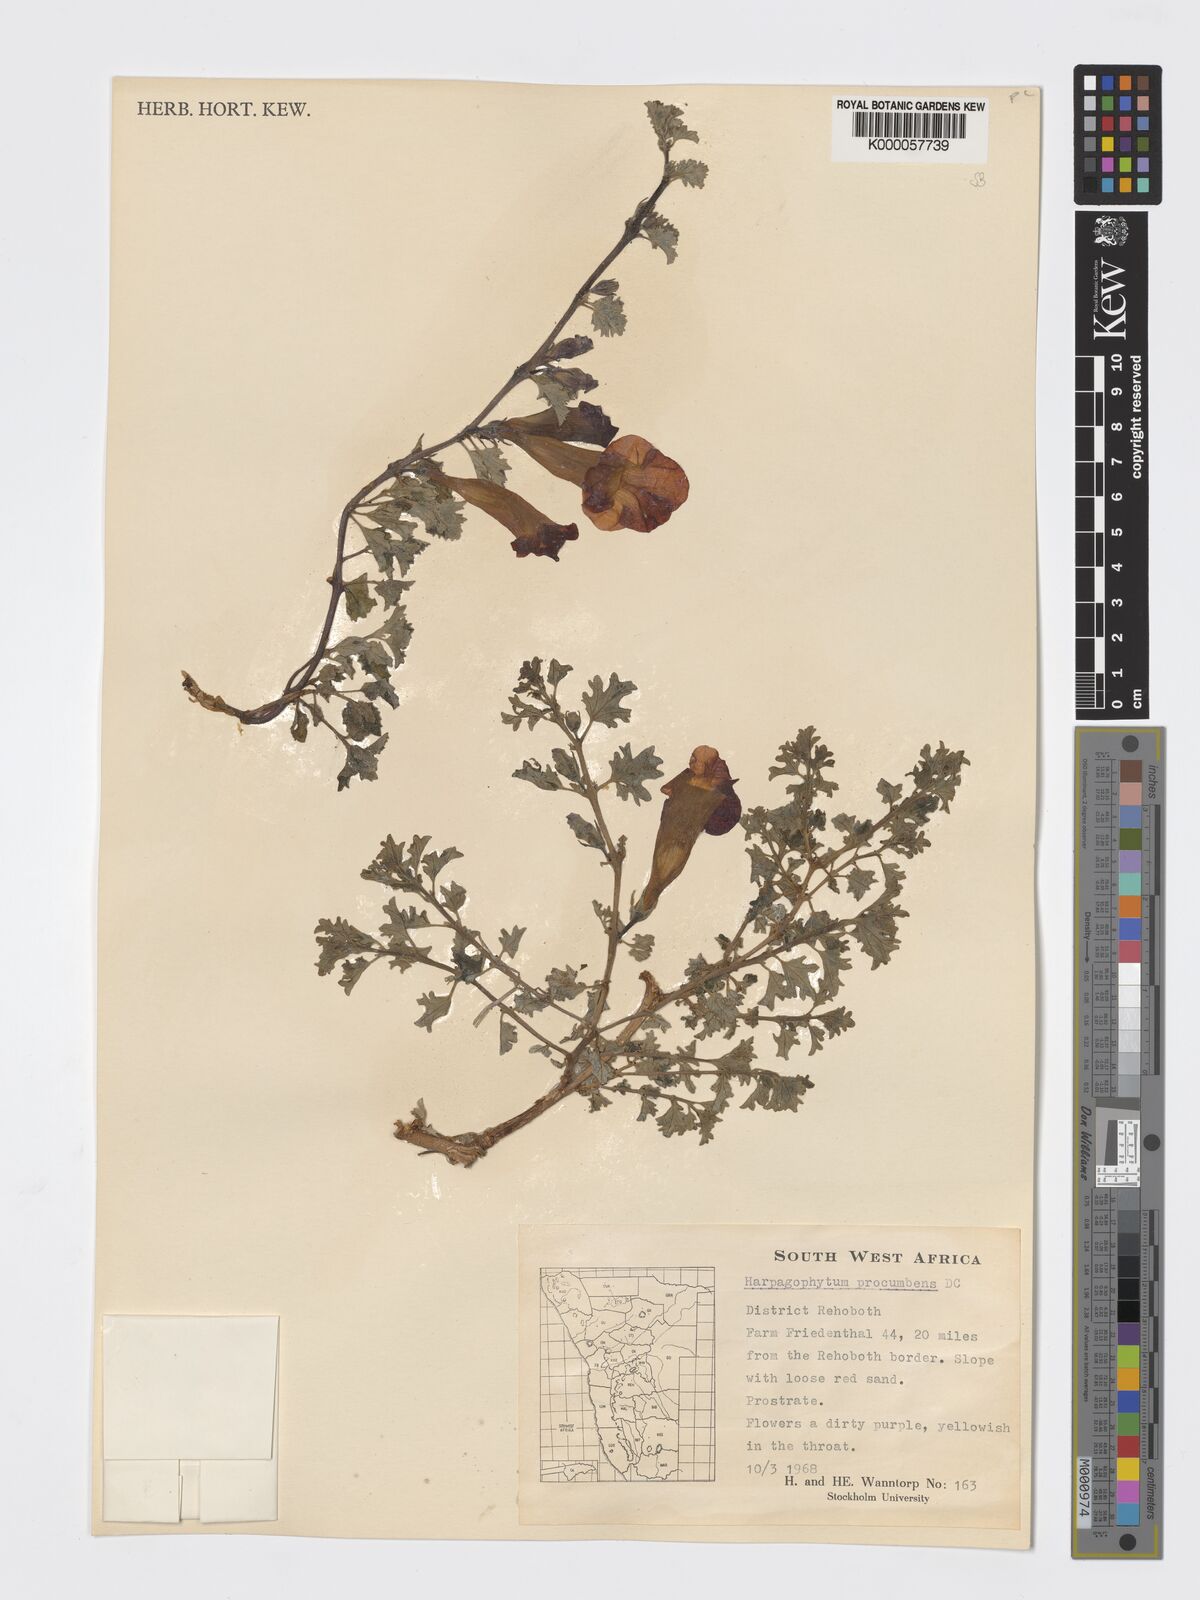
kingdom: Plantae
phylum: Tracheophyta
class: Magnoliopsida
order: Lamiales
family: Pedaliaceae
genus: Harpagophytum
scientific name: Harpagophytum procumbens
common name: Grappleplant
